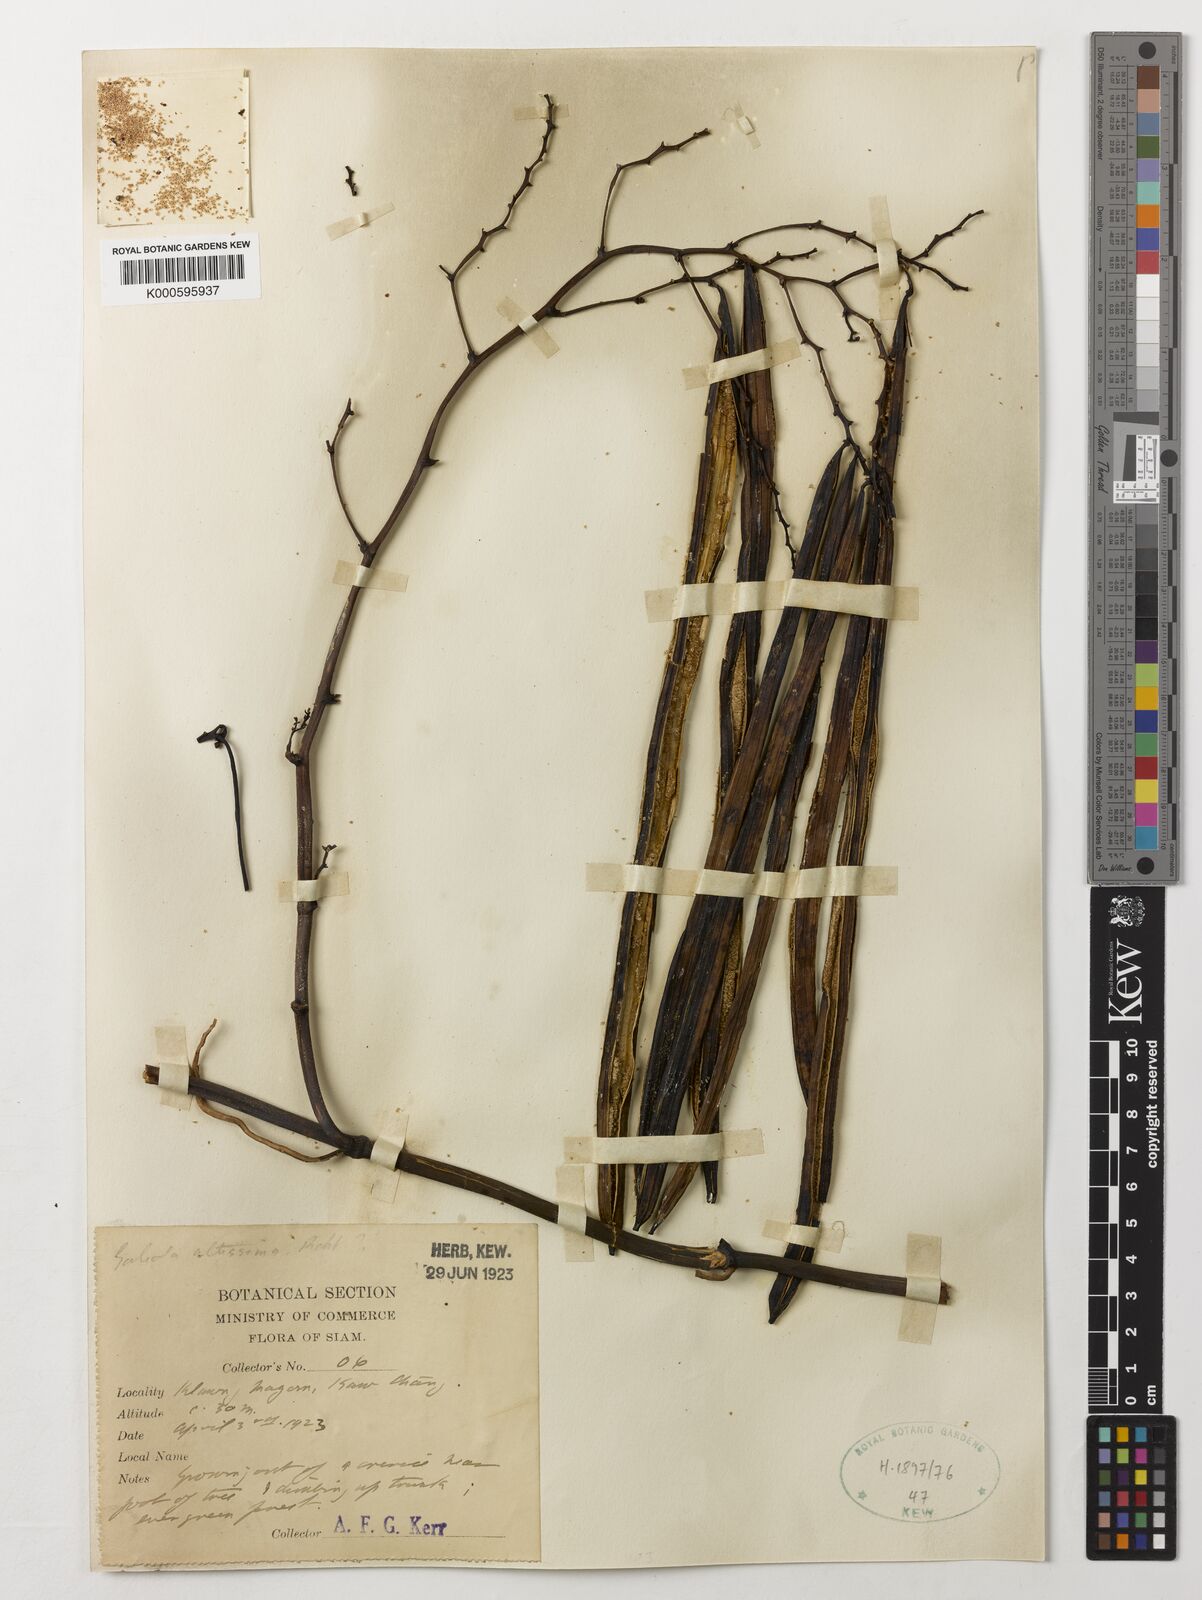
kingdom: Plantae
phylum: Tracheophyta
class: Liliopsida
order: Asparagales
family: Orchidaceae
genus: Erythrorchis
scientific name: Erythrorchis altissima
